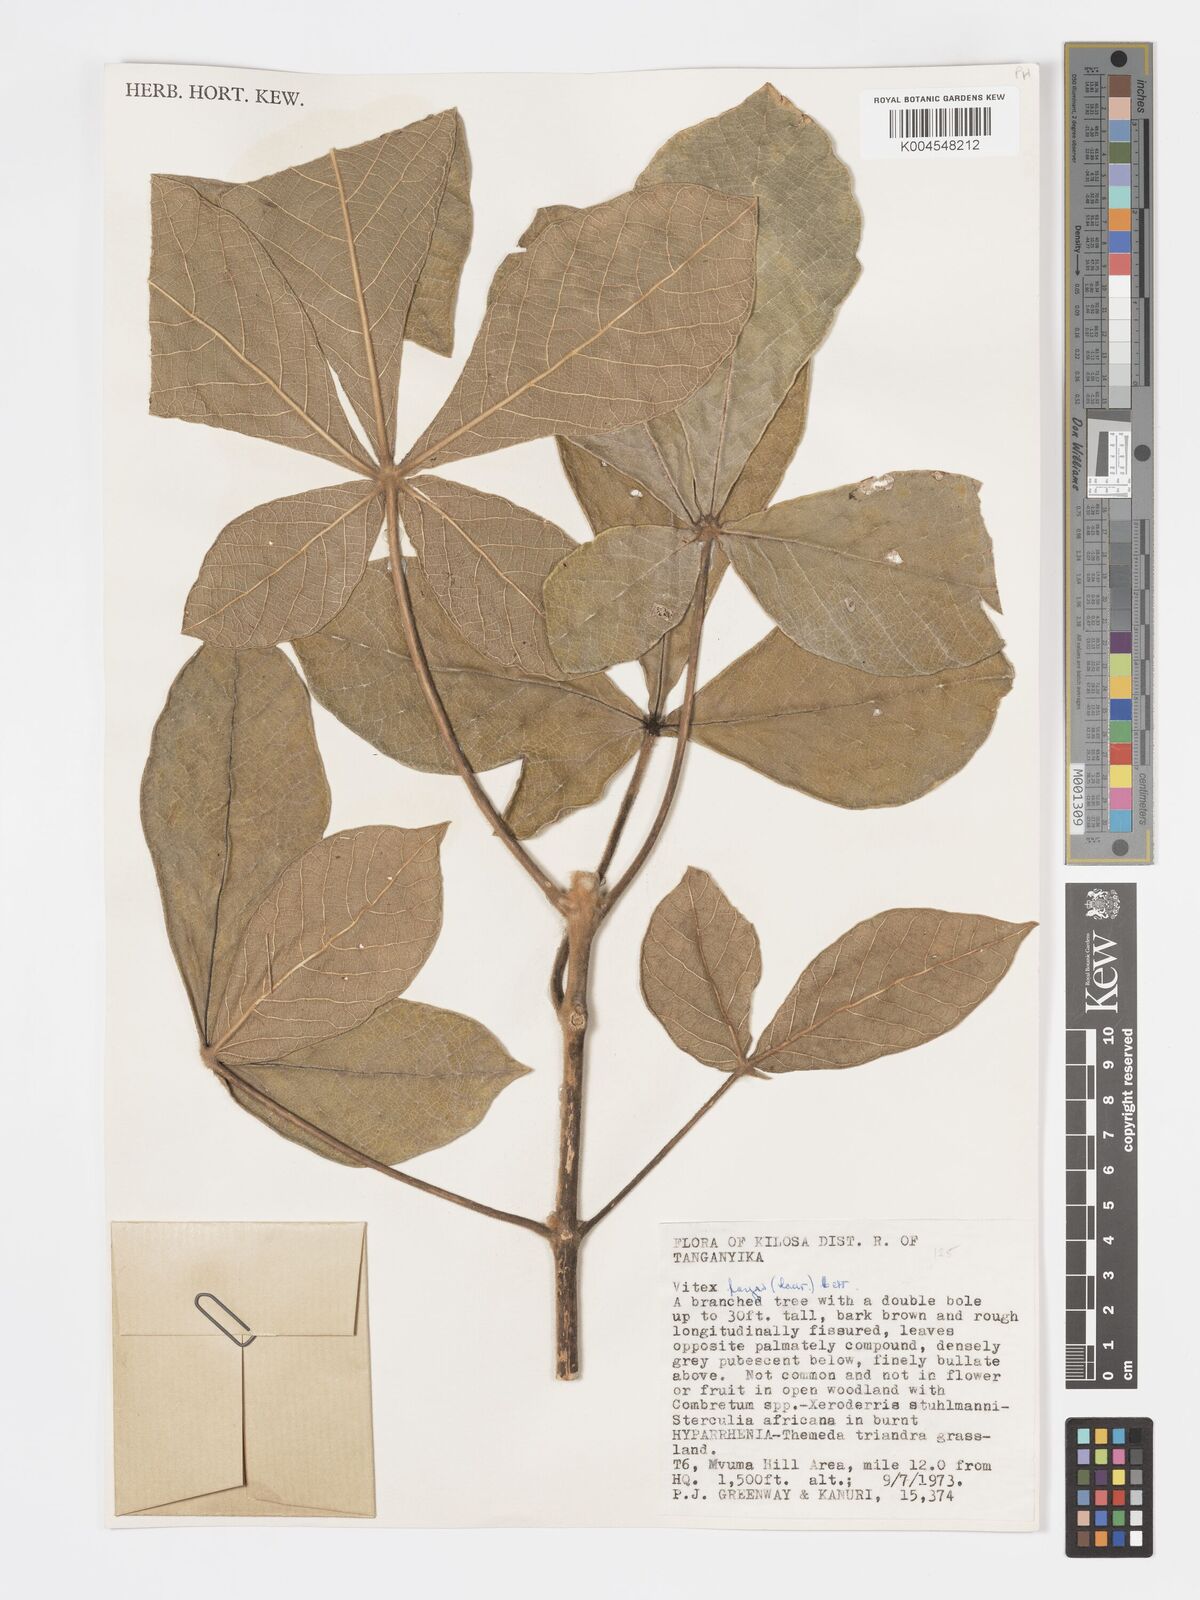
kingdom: Plantae
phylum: Tracheophyta
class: Magnoliopsida
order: Lamiales
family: Lamiaceae
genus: Vitex
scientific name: Vitex payos
